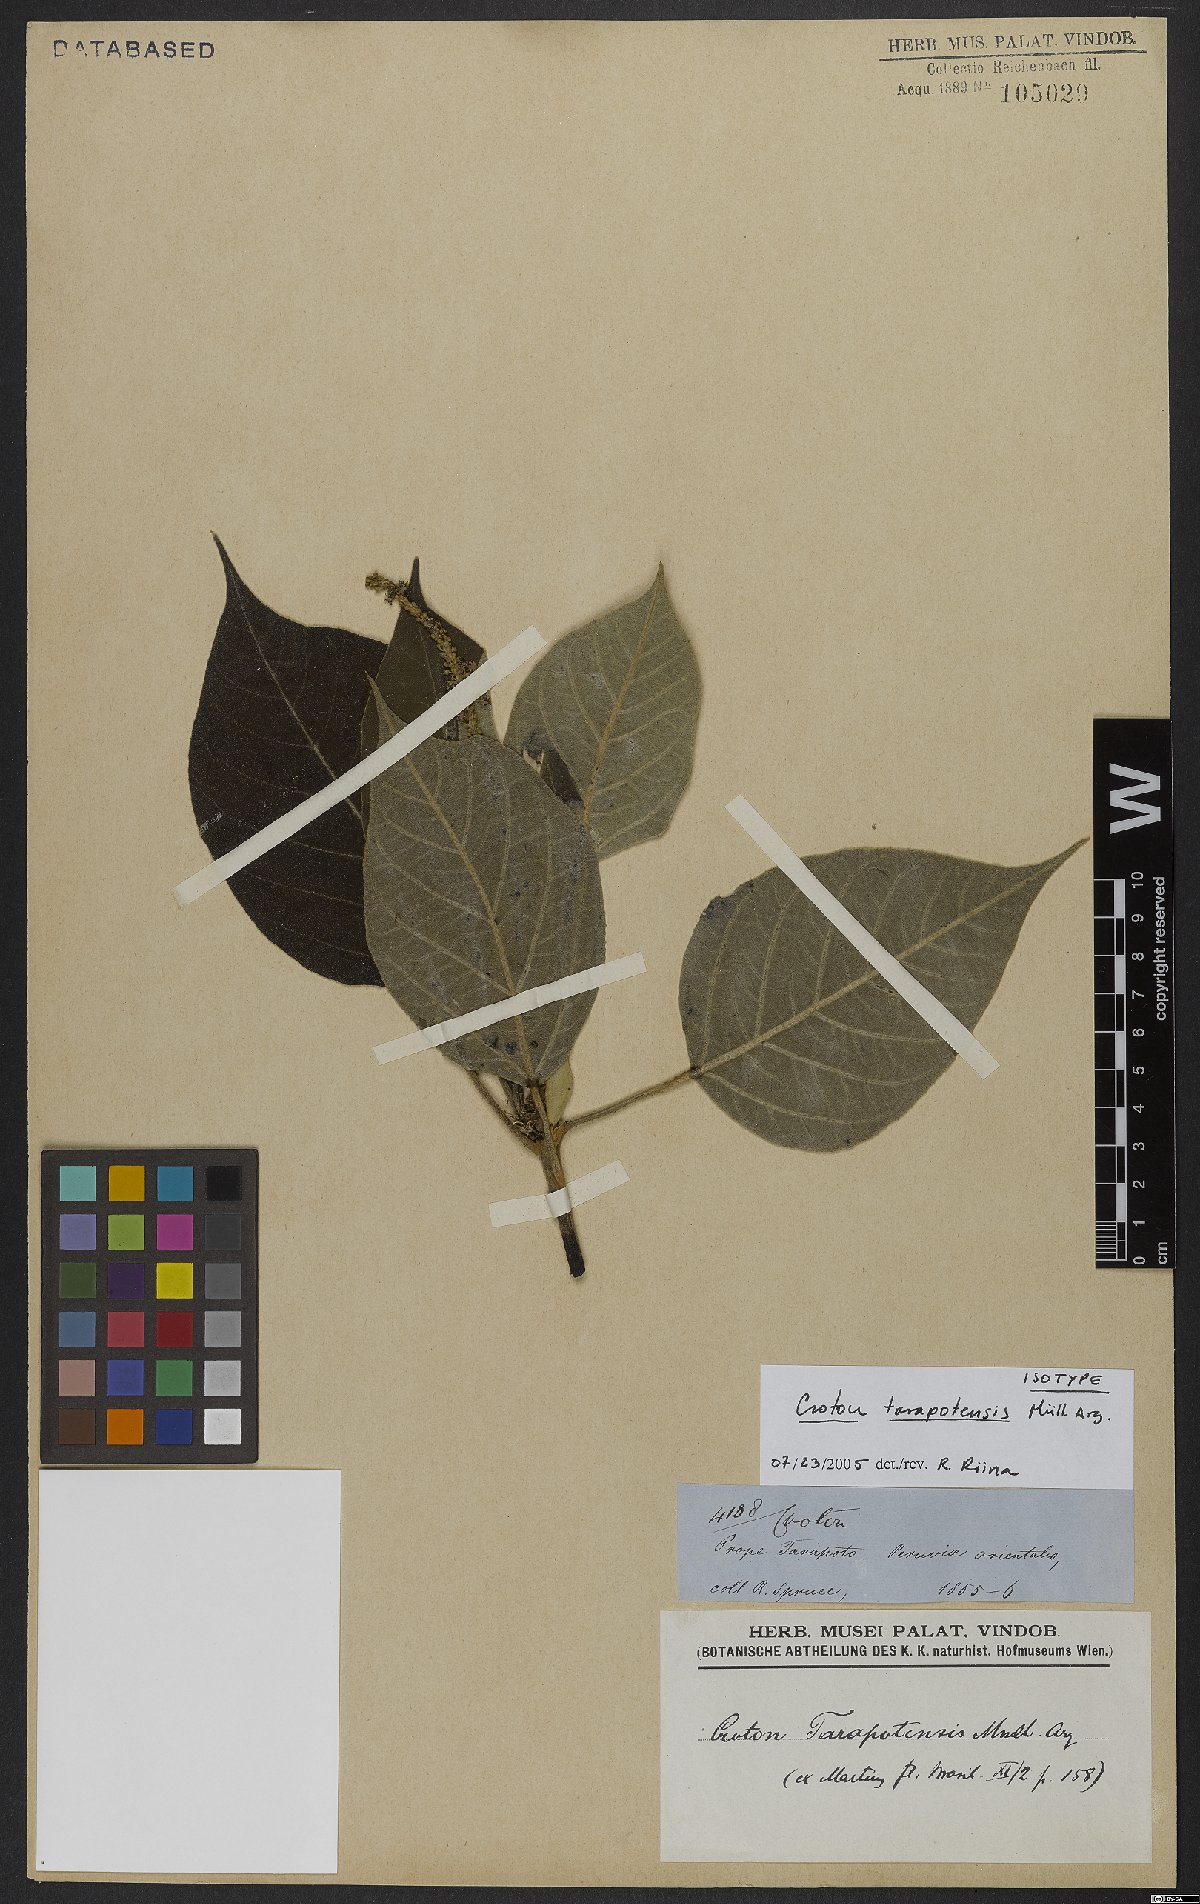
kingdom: Plantae
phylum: Tracheophyta
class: Magnoliopsida
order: Malpighiales
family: Euphorbiaceae
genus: Croton
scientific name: Croton tarapotensis
